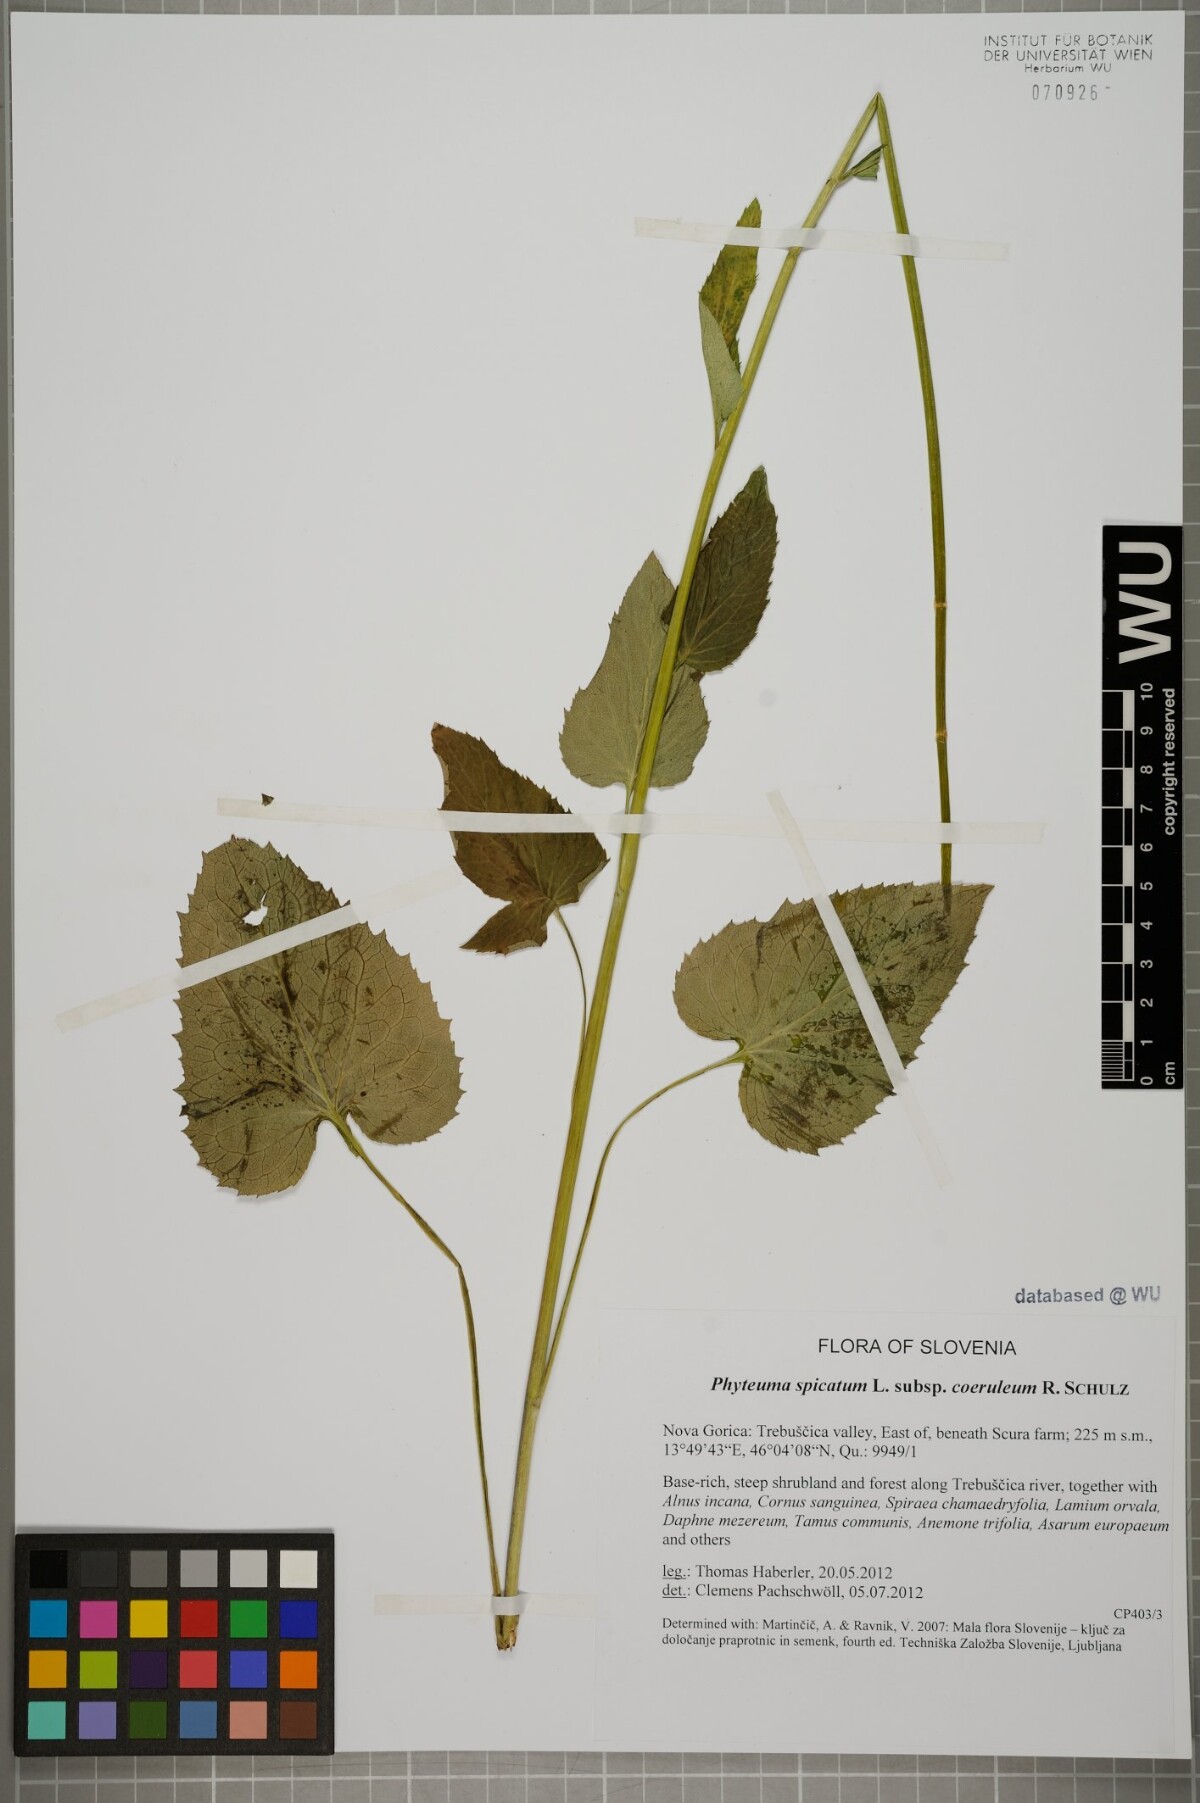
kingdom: Plantae
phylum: Tracheophyta
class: Magnoliopsida
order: Asterales
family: Campanulaceae
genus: Phyteuma
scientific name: Phyteuma spicatum
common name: Spiked rampion
